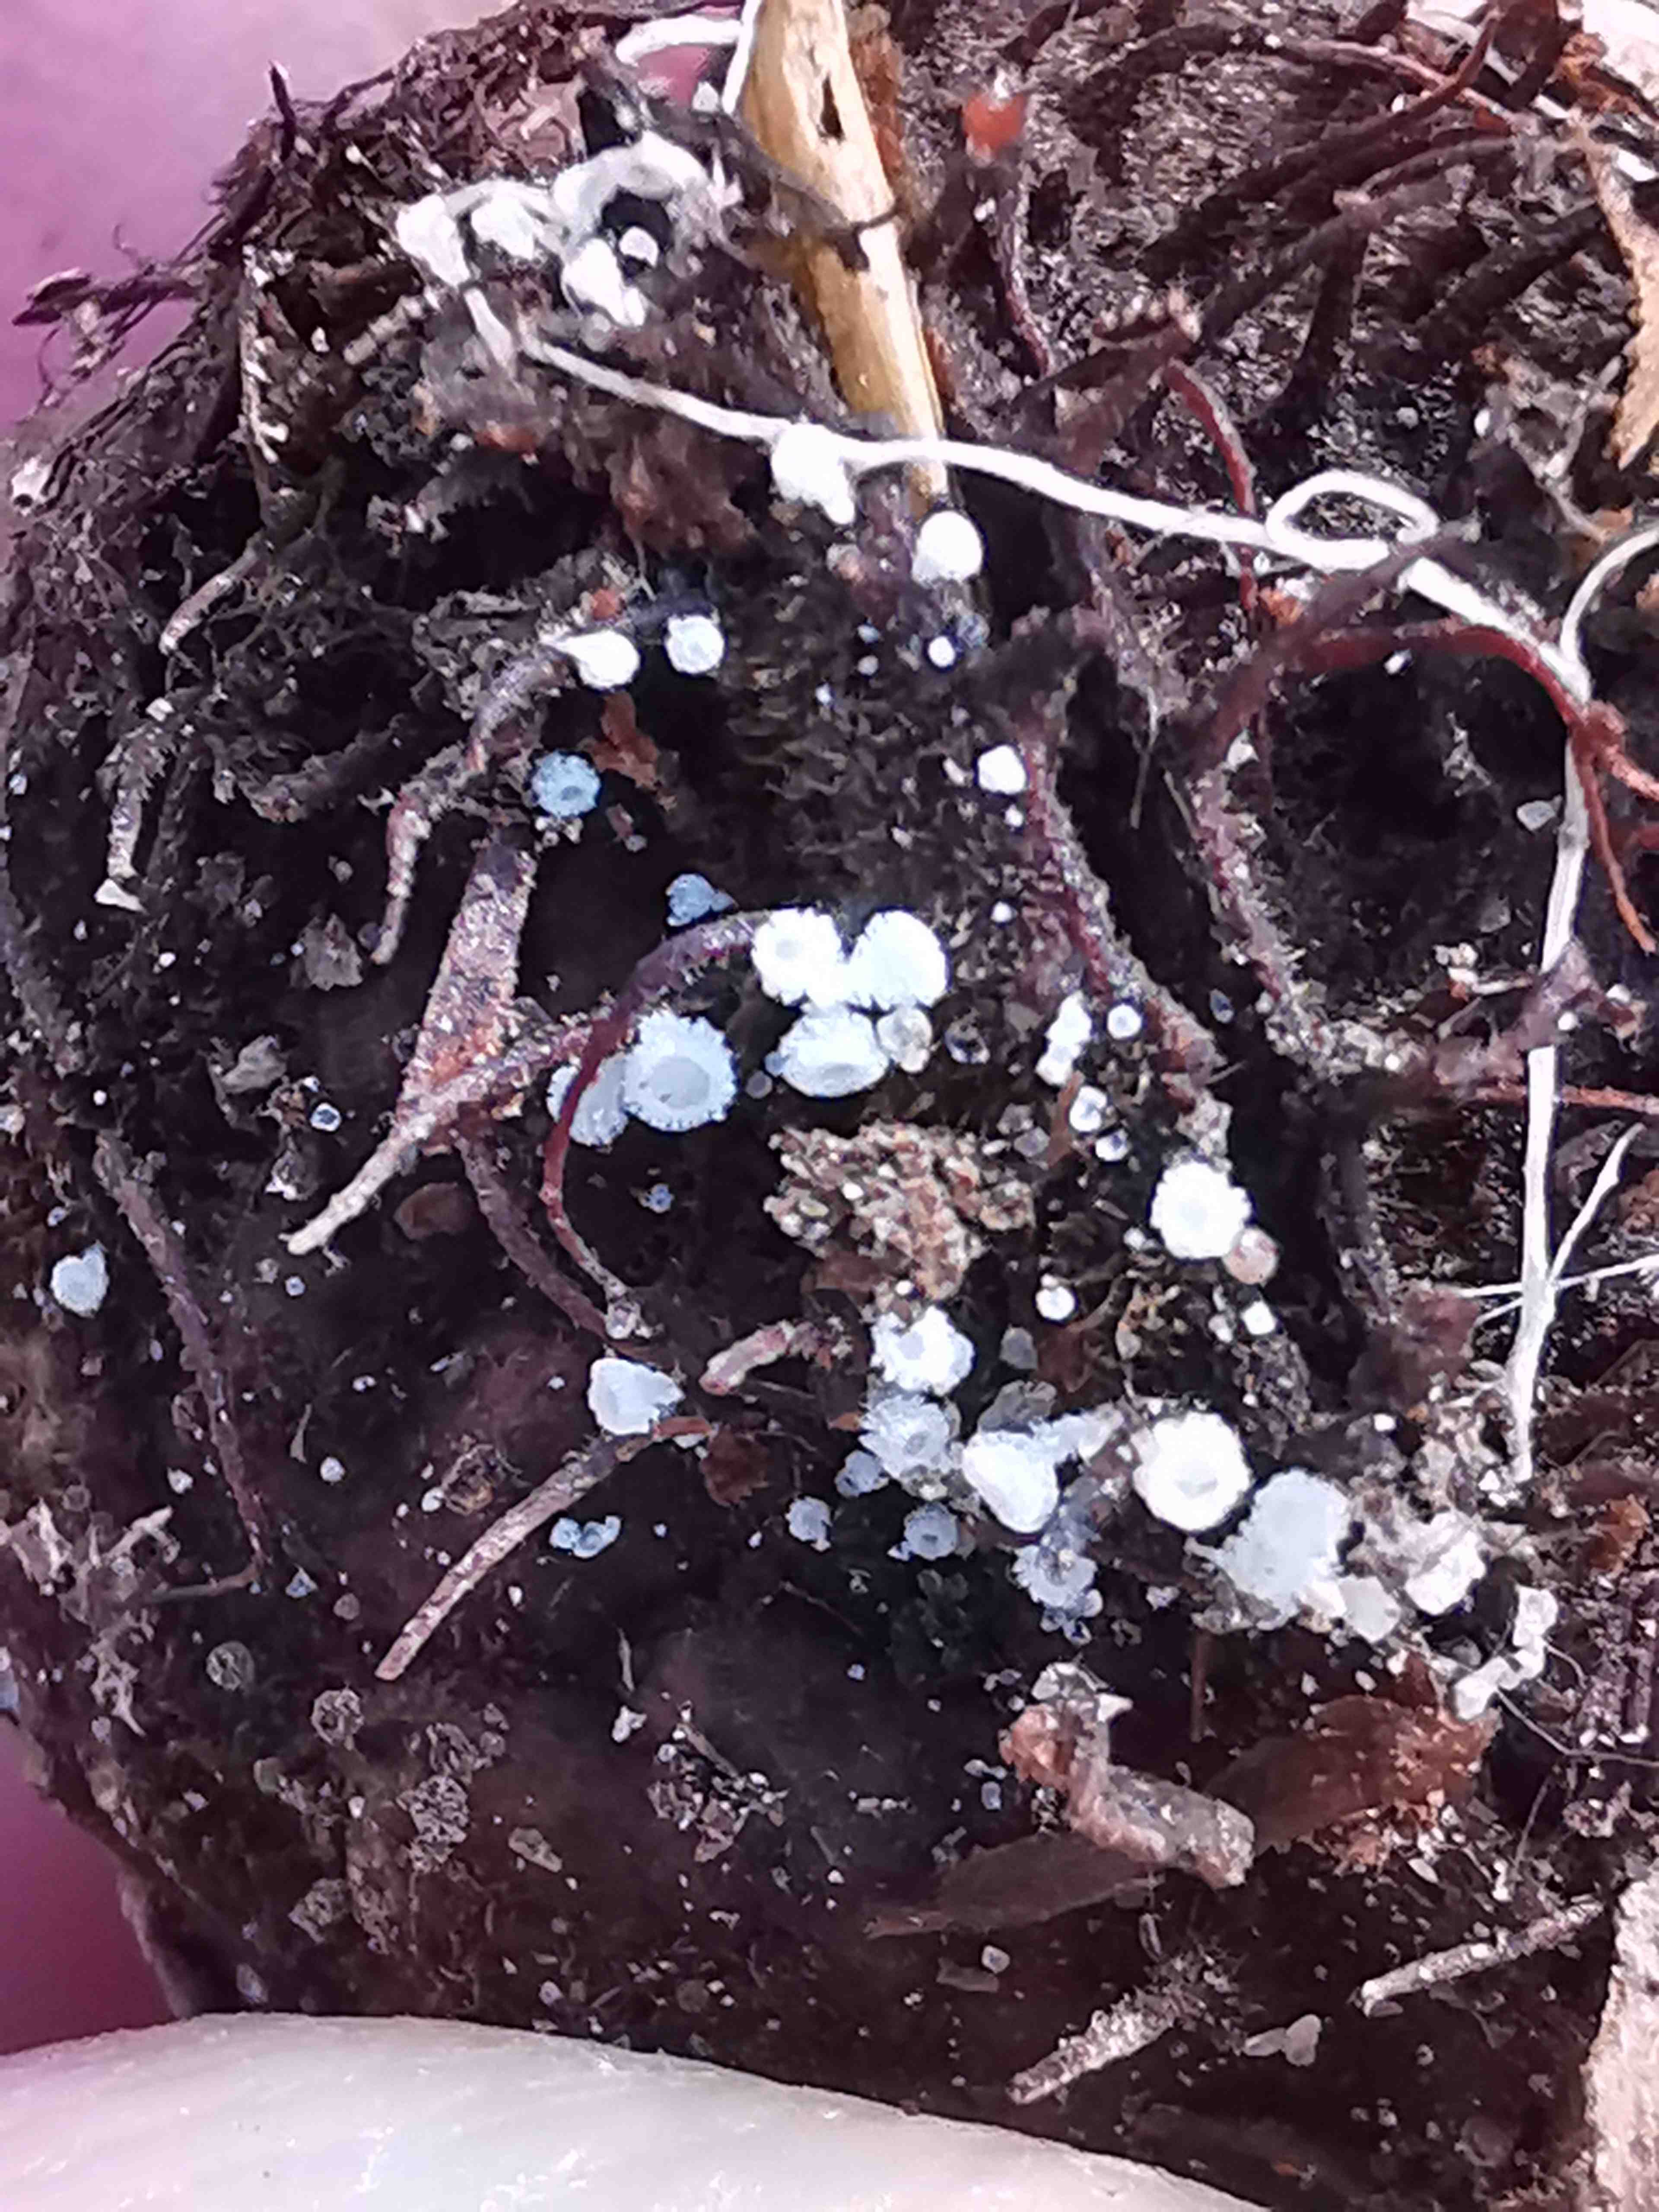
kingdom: Fungi
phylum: Ascomycota
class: Leotiomycetes
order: Helotiales
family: Lachnaceae
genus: Lachnum
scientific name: Lachnum virgineum
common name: jomfru-frynseskive
